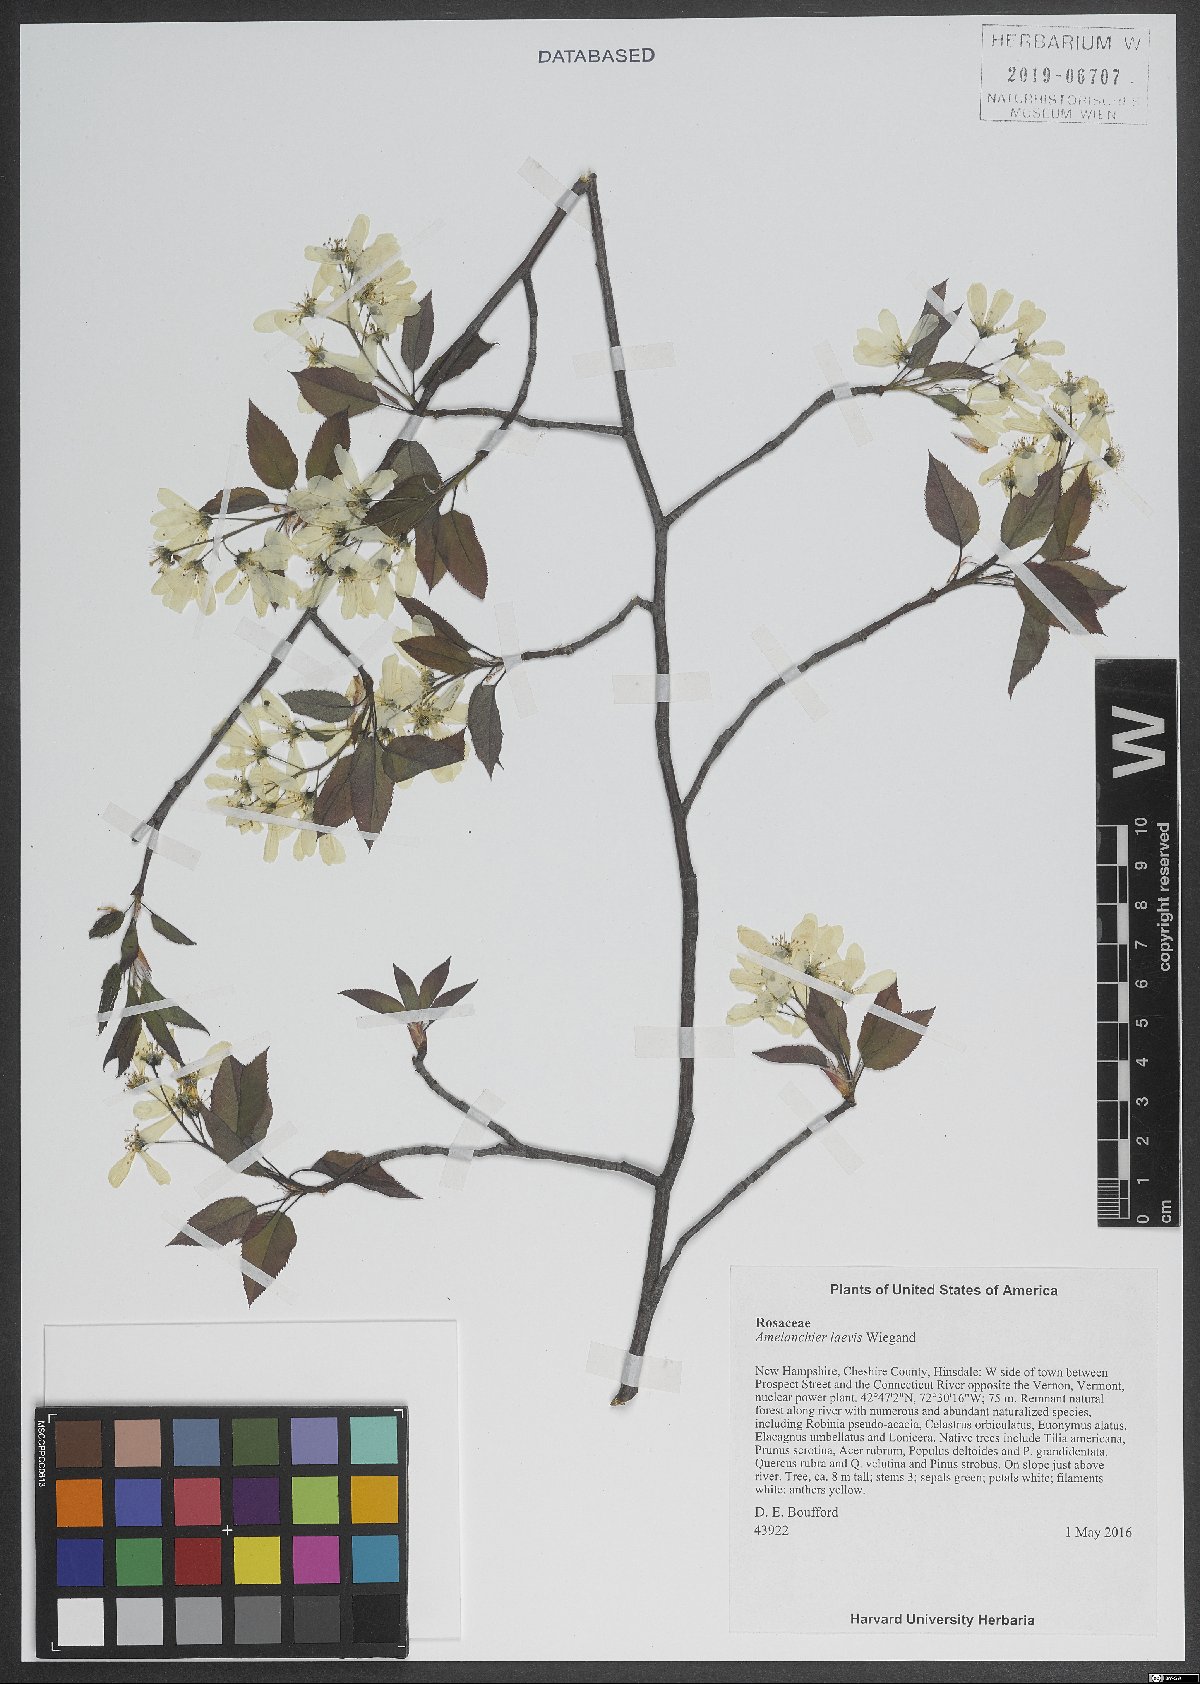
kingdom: Plantae
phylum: Tracheophyta
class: Magnoliopsida
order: Rosales
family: Rosaceae
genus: Amelanchier
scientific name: Amelanchier laevis
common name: Allegheny serviceberry
